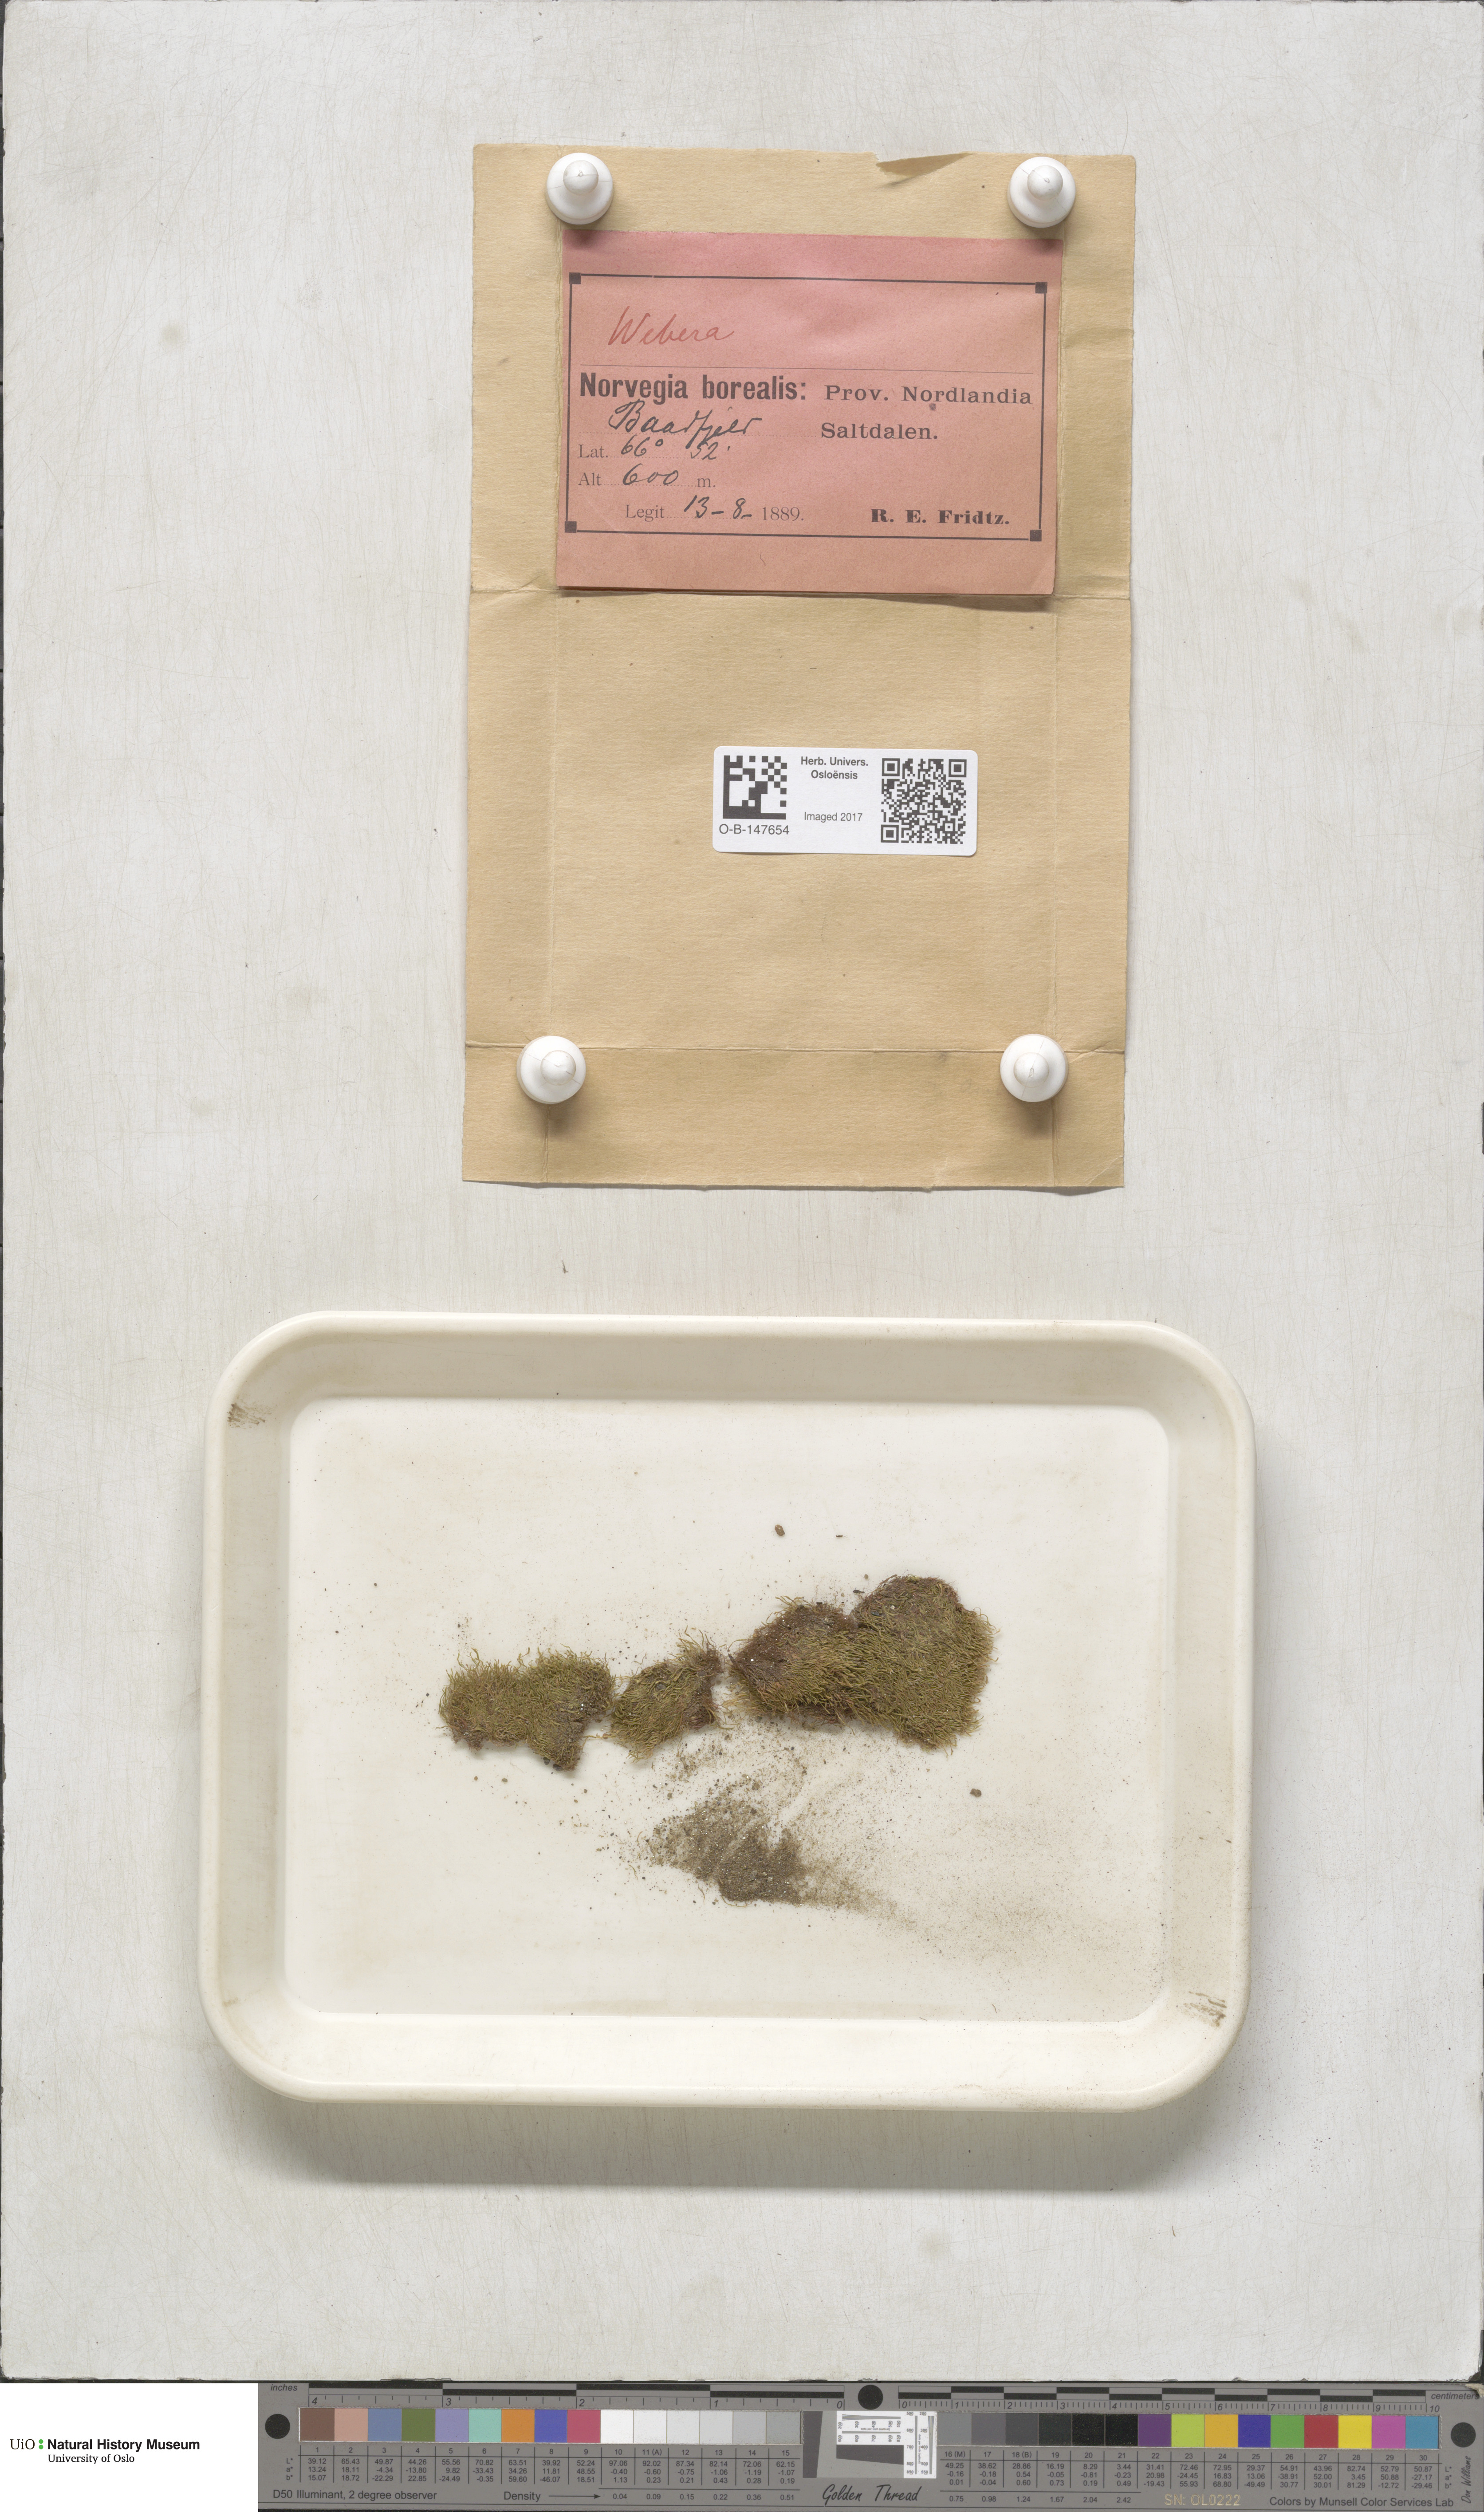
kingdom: Plantae
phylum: Bryophyta
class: Bryopsida
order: Bryales
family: Mniaceae
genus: Pohlia
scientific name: Pohlia
